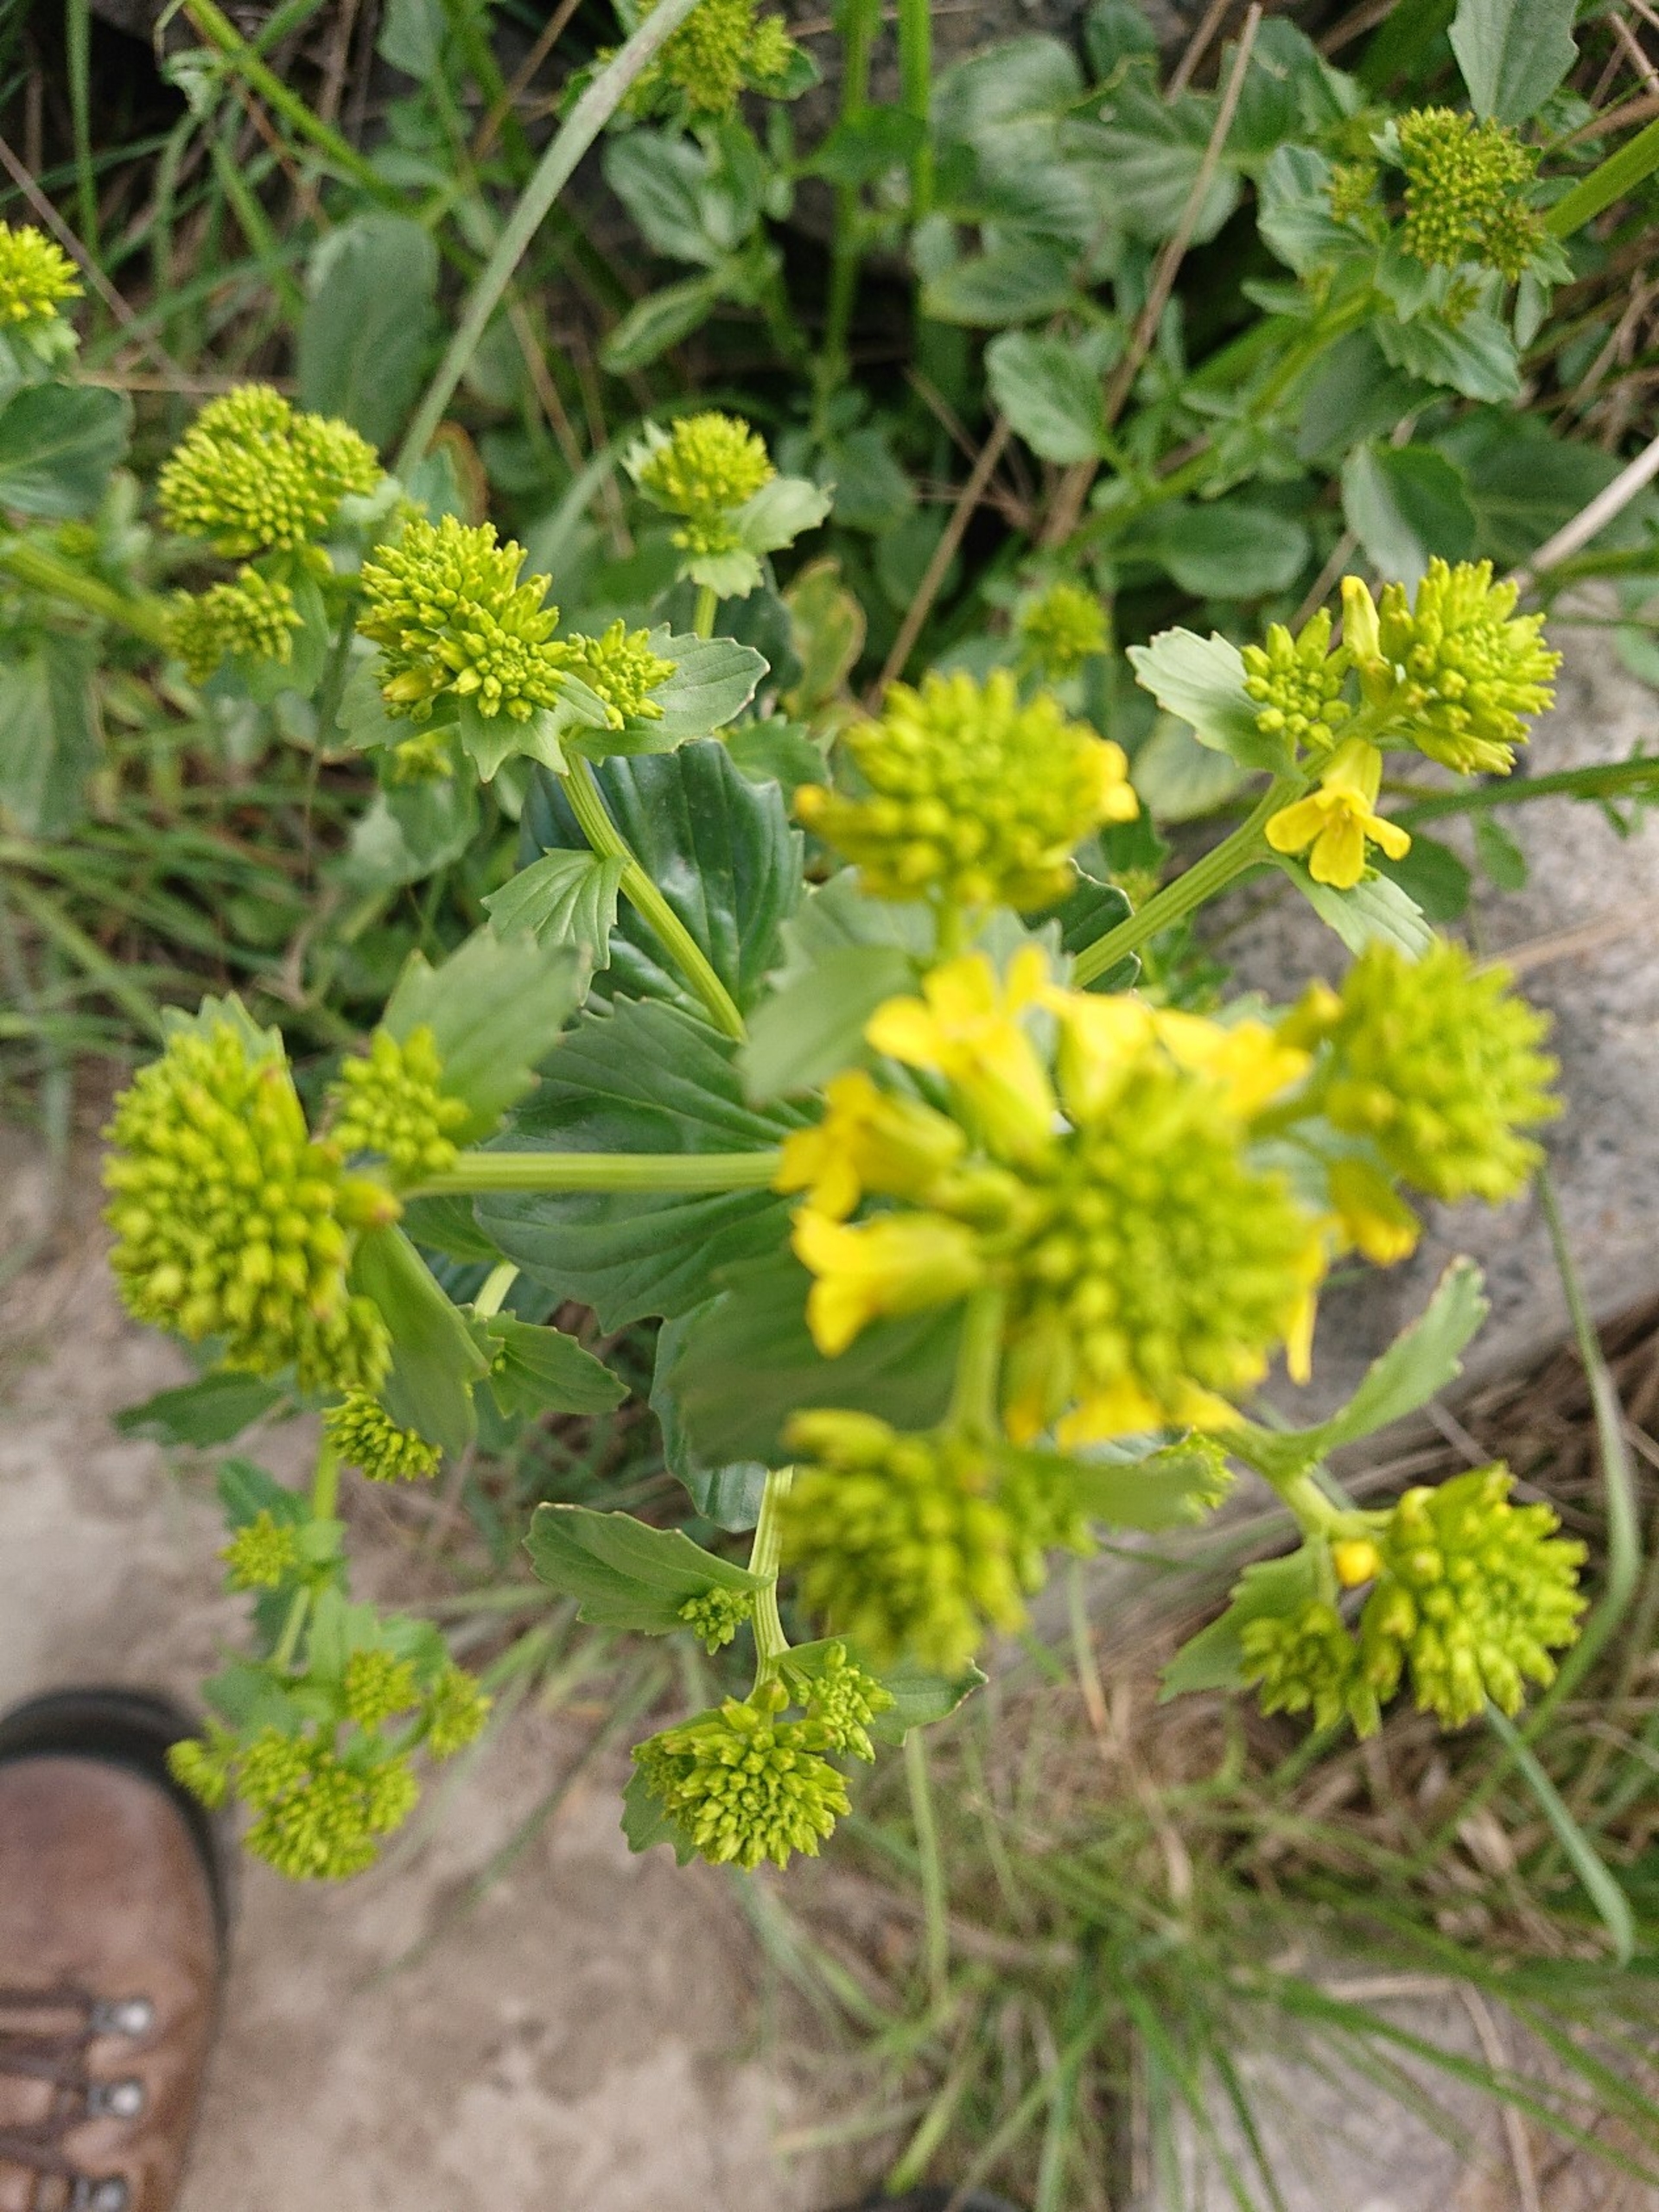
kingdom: Plantae
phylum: Tracheophyta
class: Magnoliopsida
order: Brassicales
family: Brassicaceae
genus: Barbarea
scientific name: Barbarea vulgaris
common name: Almindelig vinterkarse
